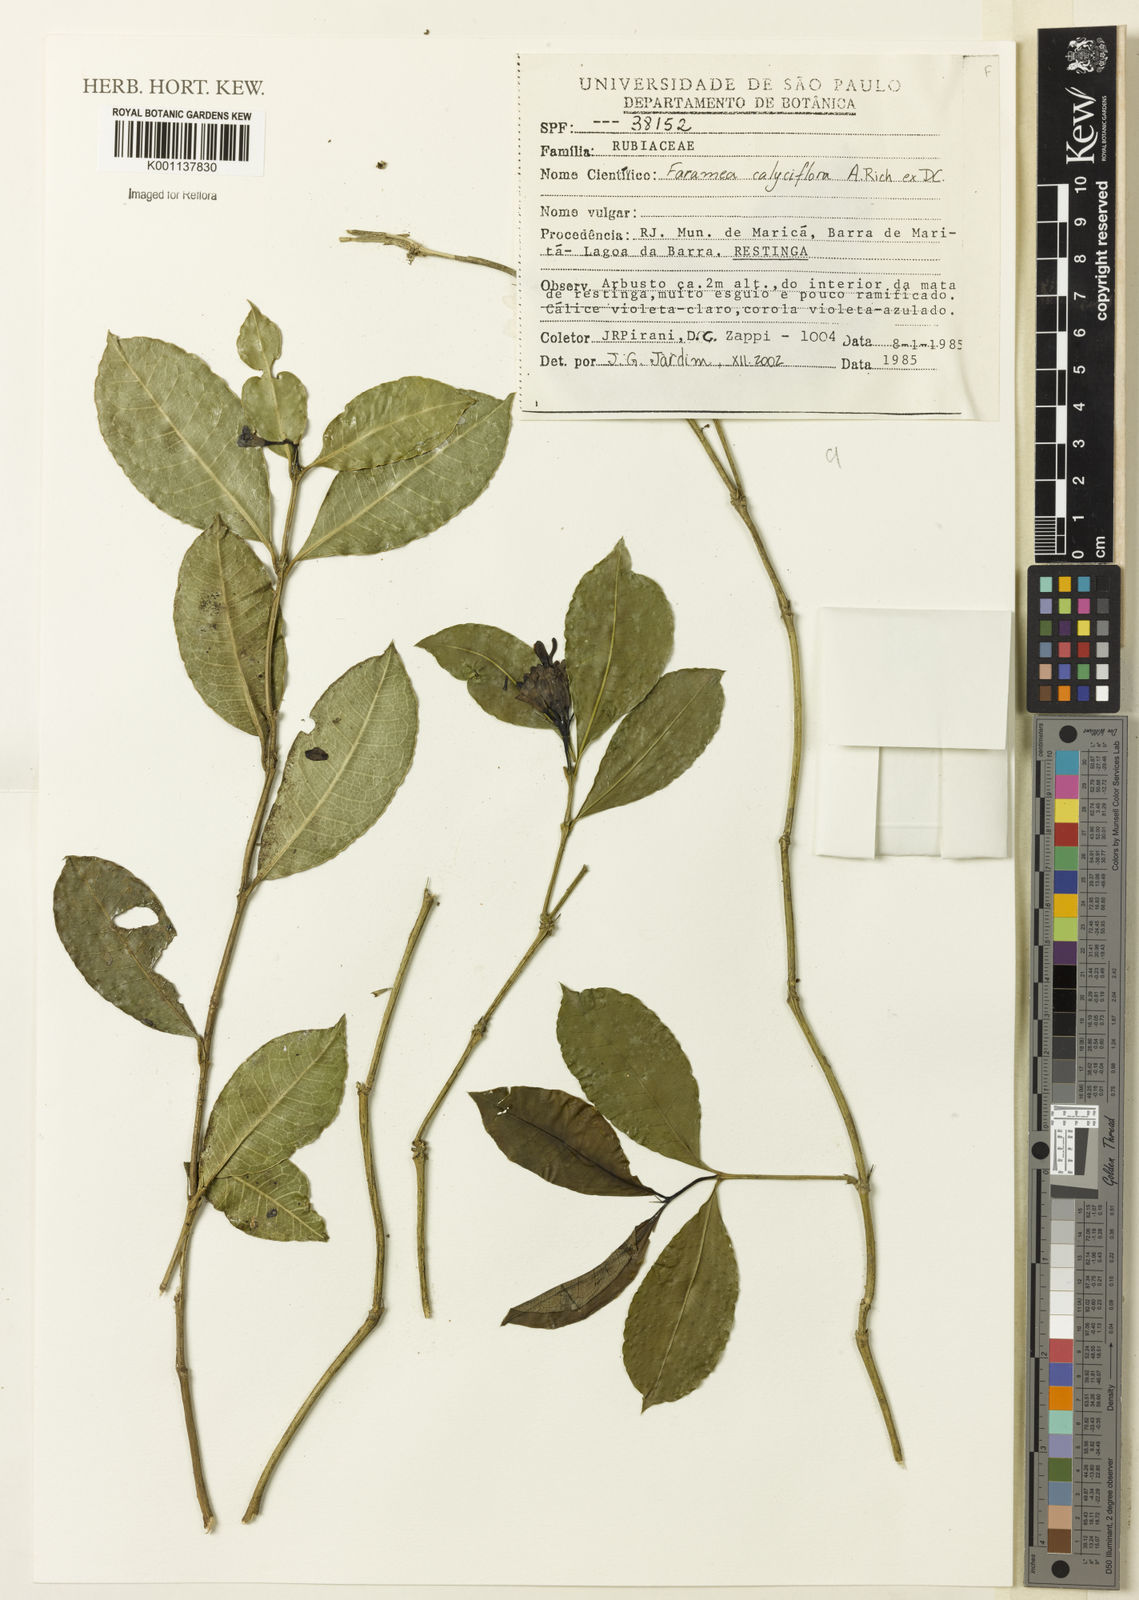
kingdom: Plantae
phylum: Tracheophyta
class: Magnoliopsida
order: Gentianales
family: Rubiaceae
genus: Faramea
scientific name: Faramea calyciflora
